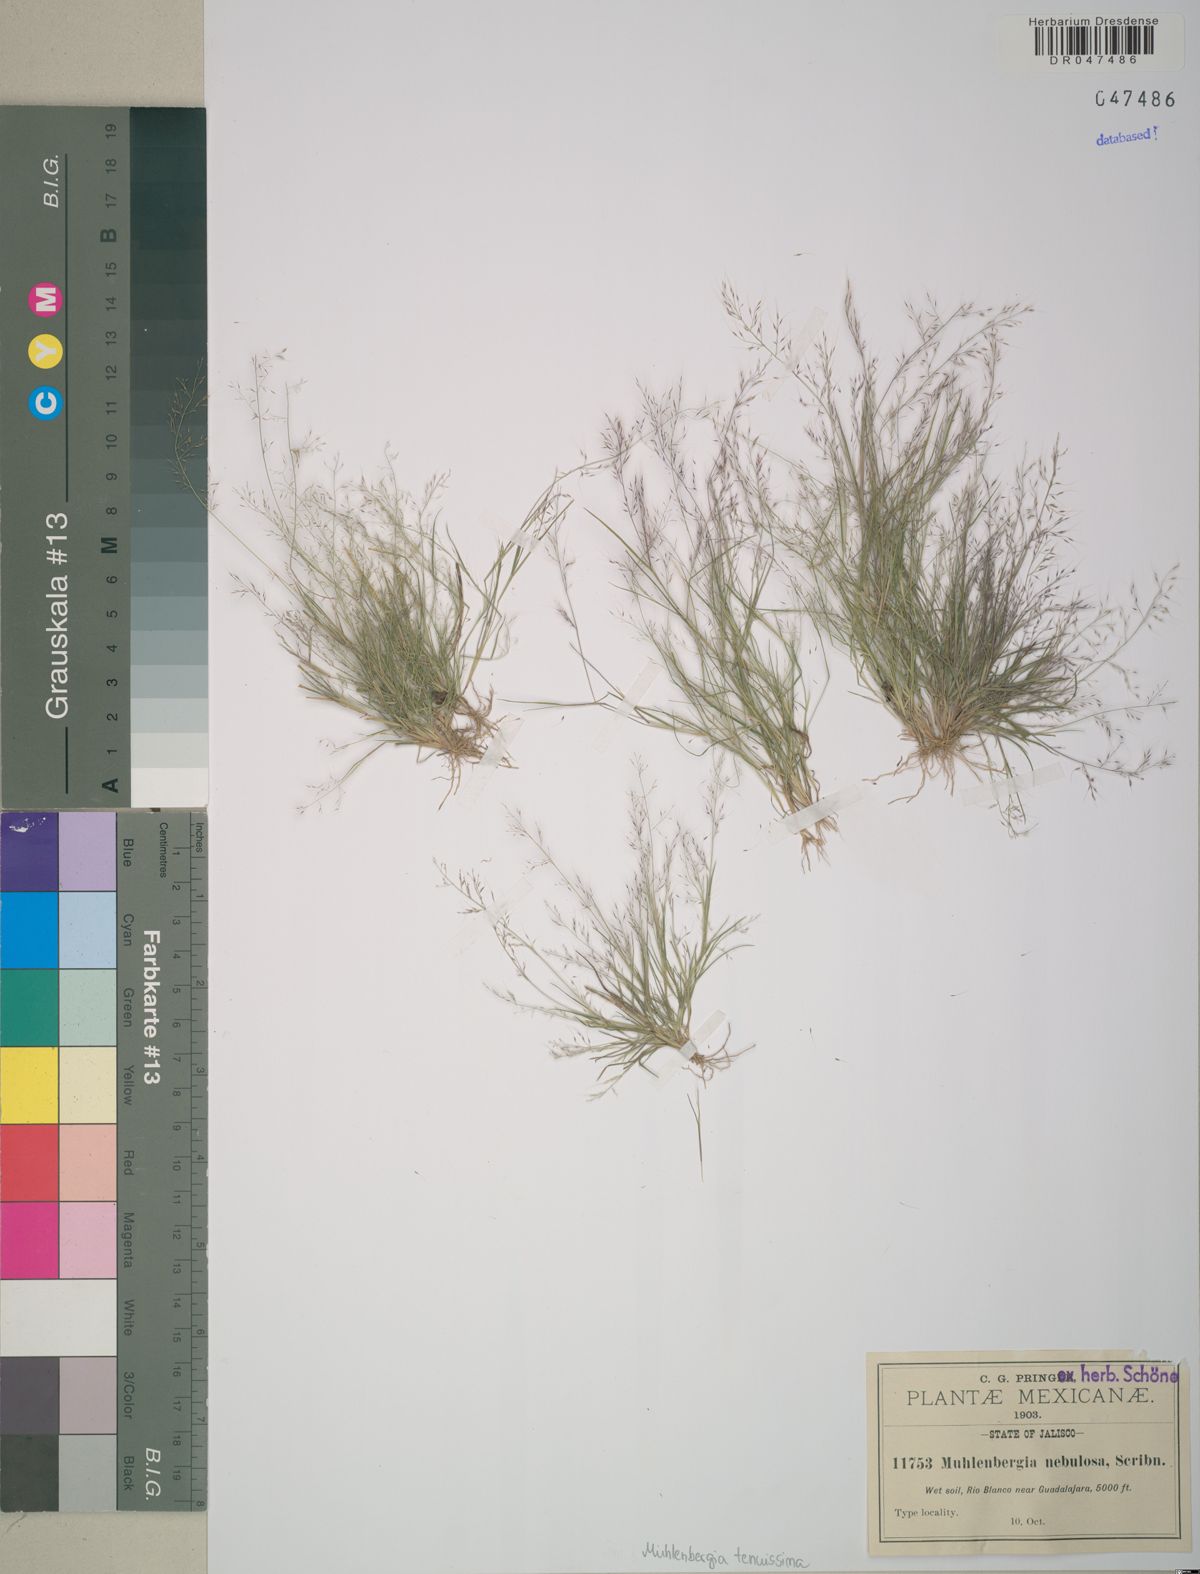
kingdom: Plantae
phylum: Tracheophyta
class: Liliopsida
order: Poales
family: Poaceae
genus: Muhlenbergia
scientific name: Muhlenbergia tenuissima
